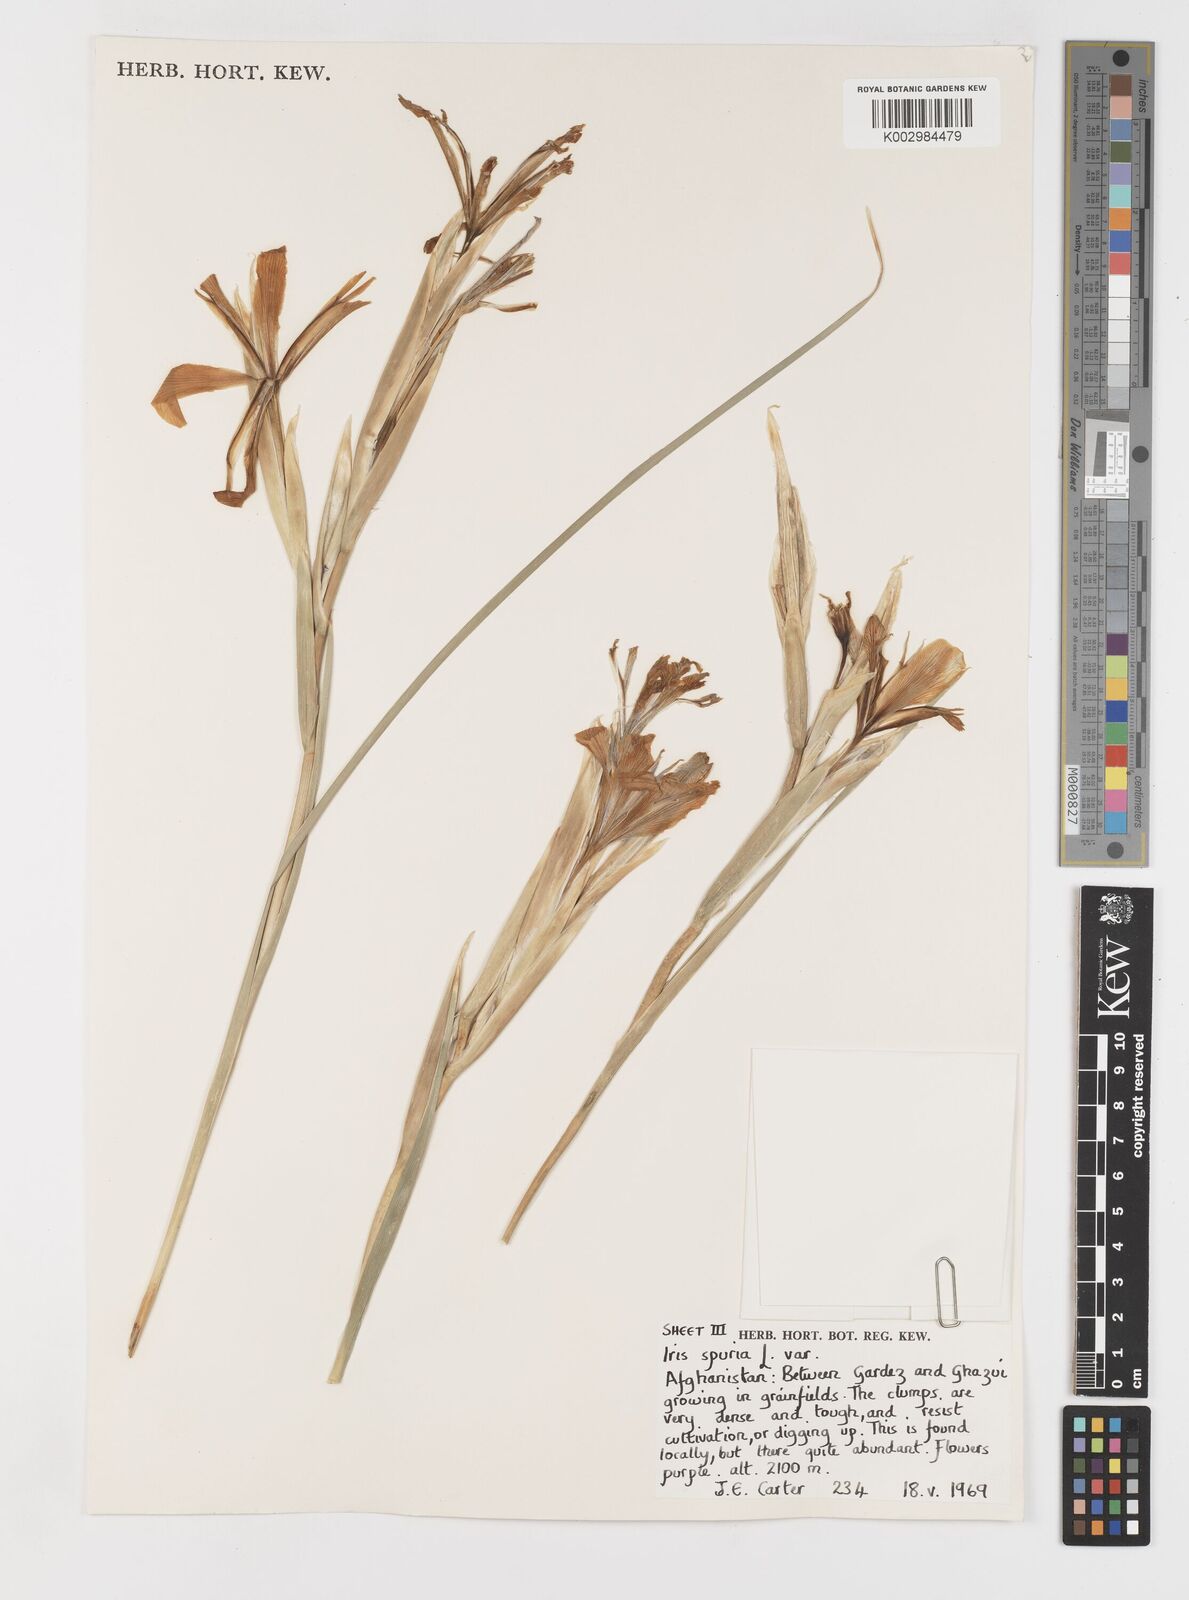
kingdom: Plantae
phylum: Tracheophyta
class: Liliopsida
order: Asparagales
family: Iridaceae
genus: Iris
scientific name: Iris songarica
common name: Songar iris
